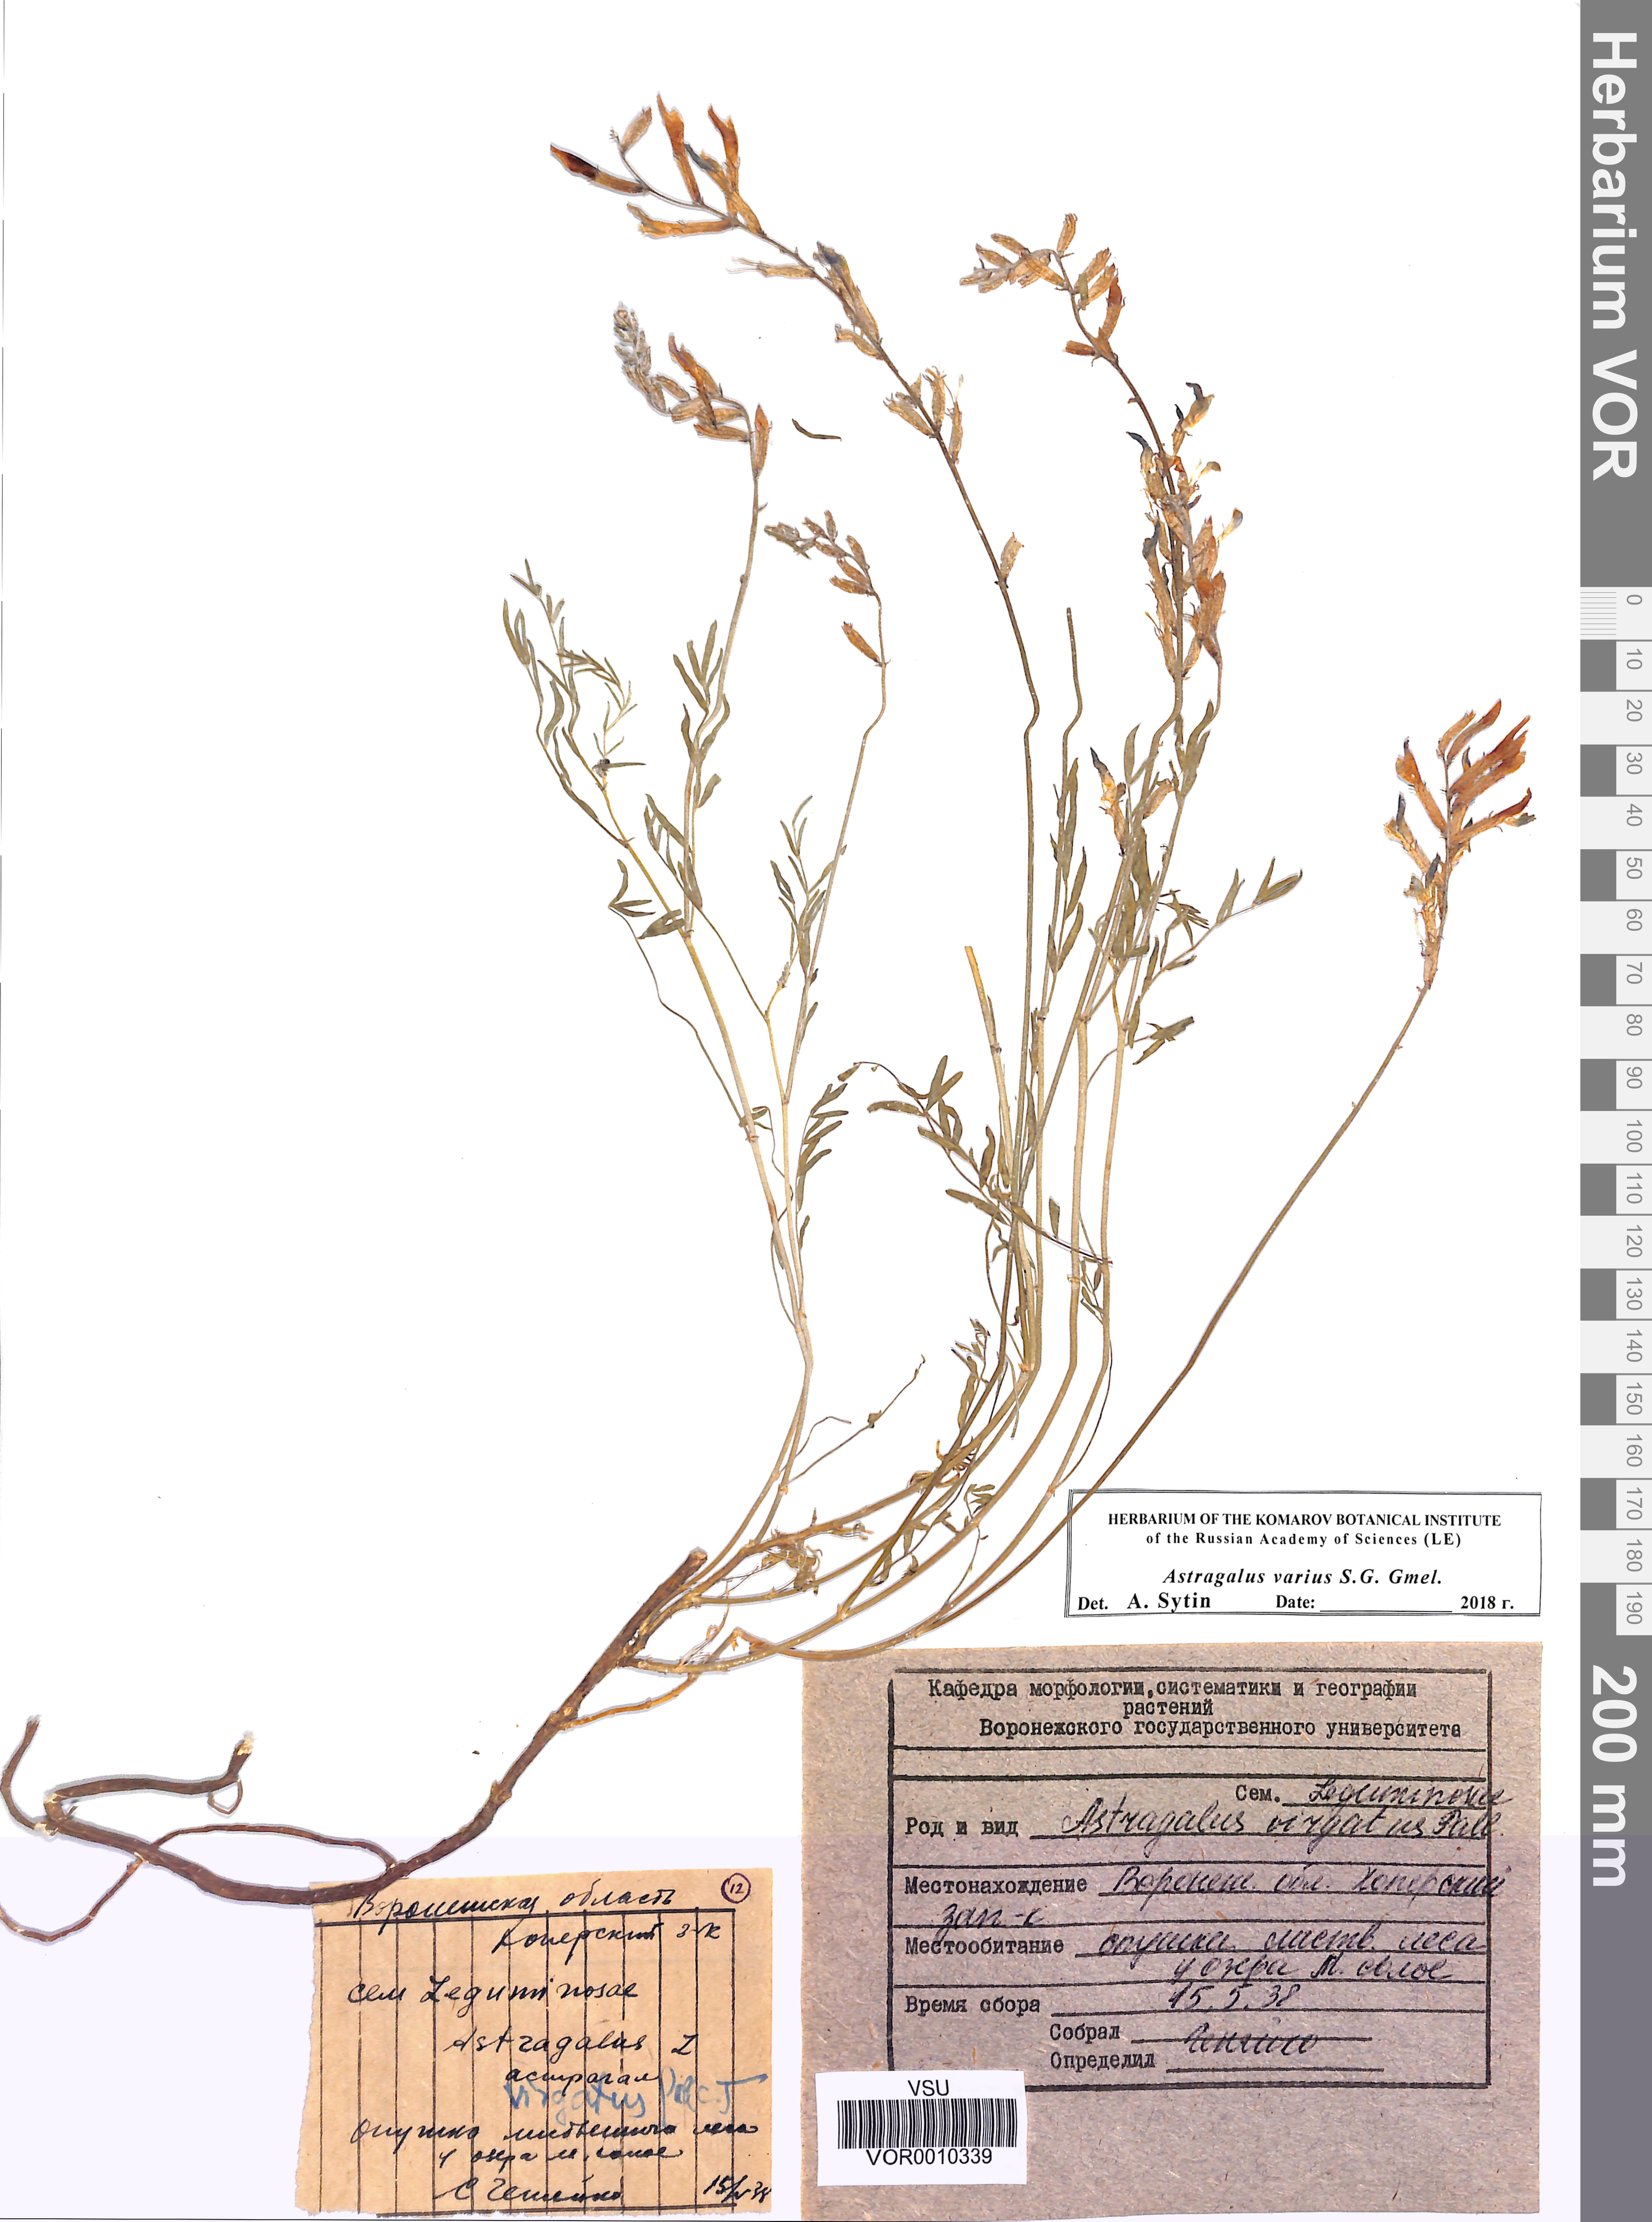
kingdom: Plantae
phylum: Tracheophyta
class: Magnoliopsida
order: Fabales
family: Fabaceae
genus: Astragalus
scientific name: Astragalus varius
